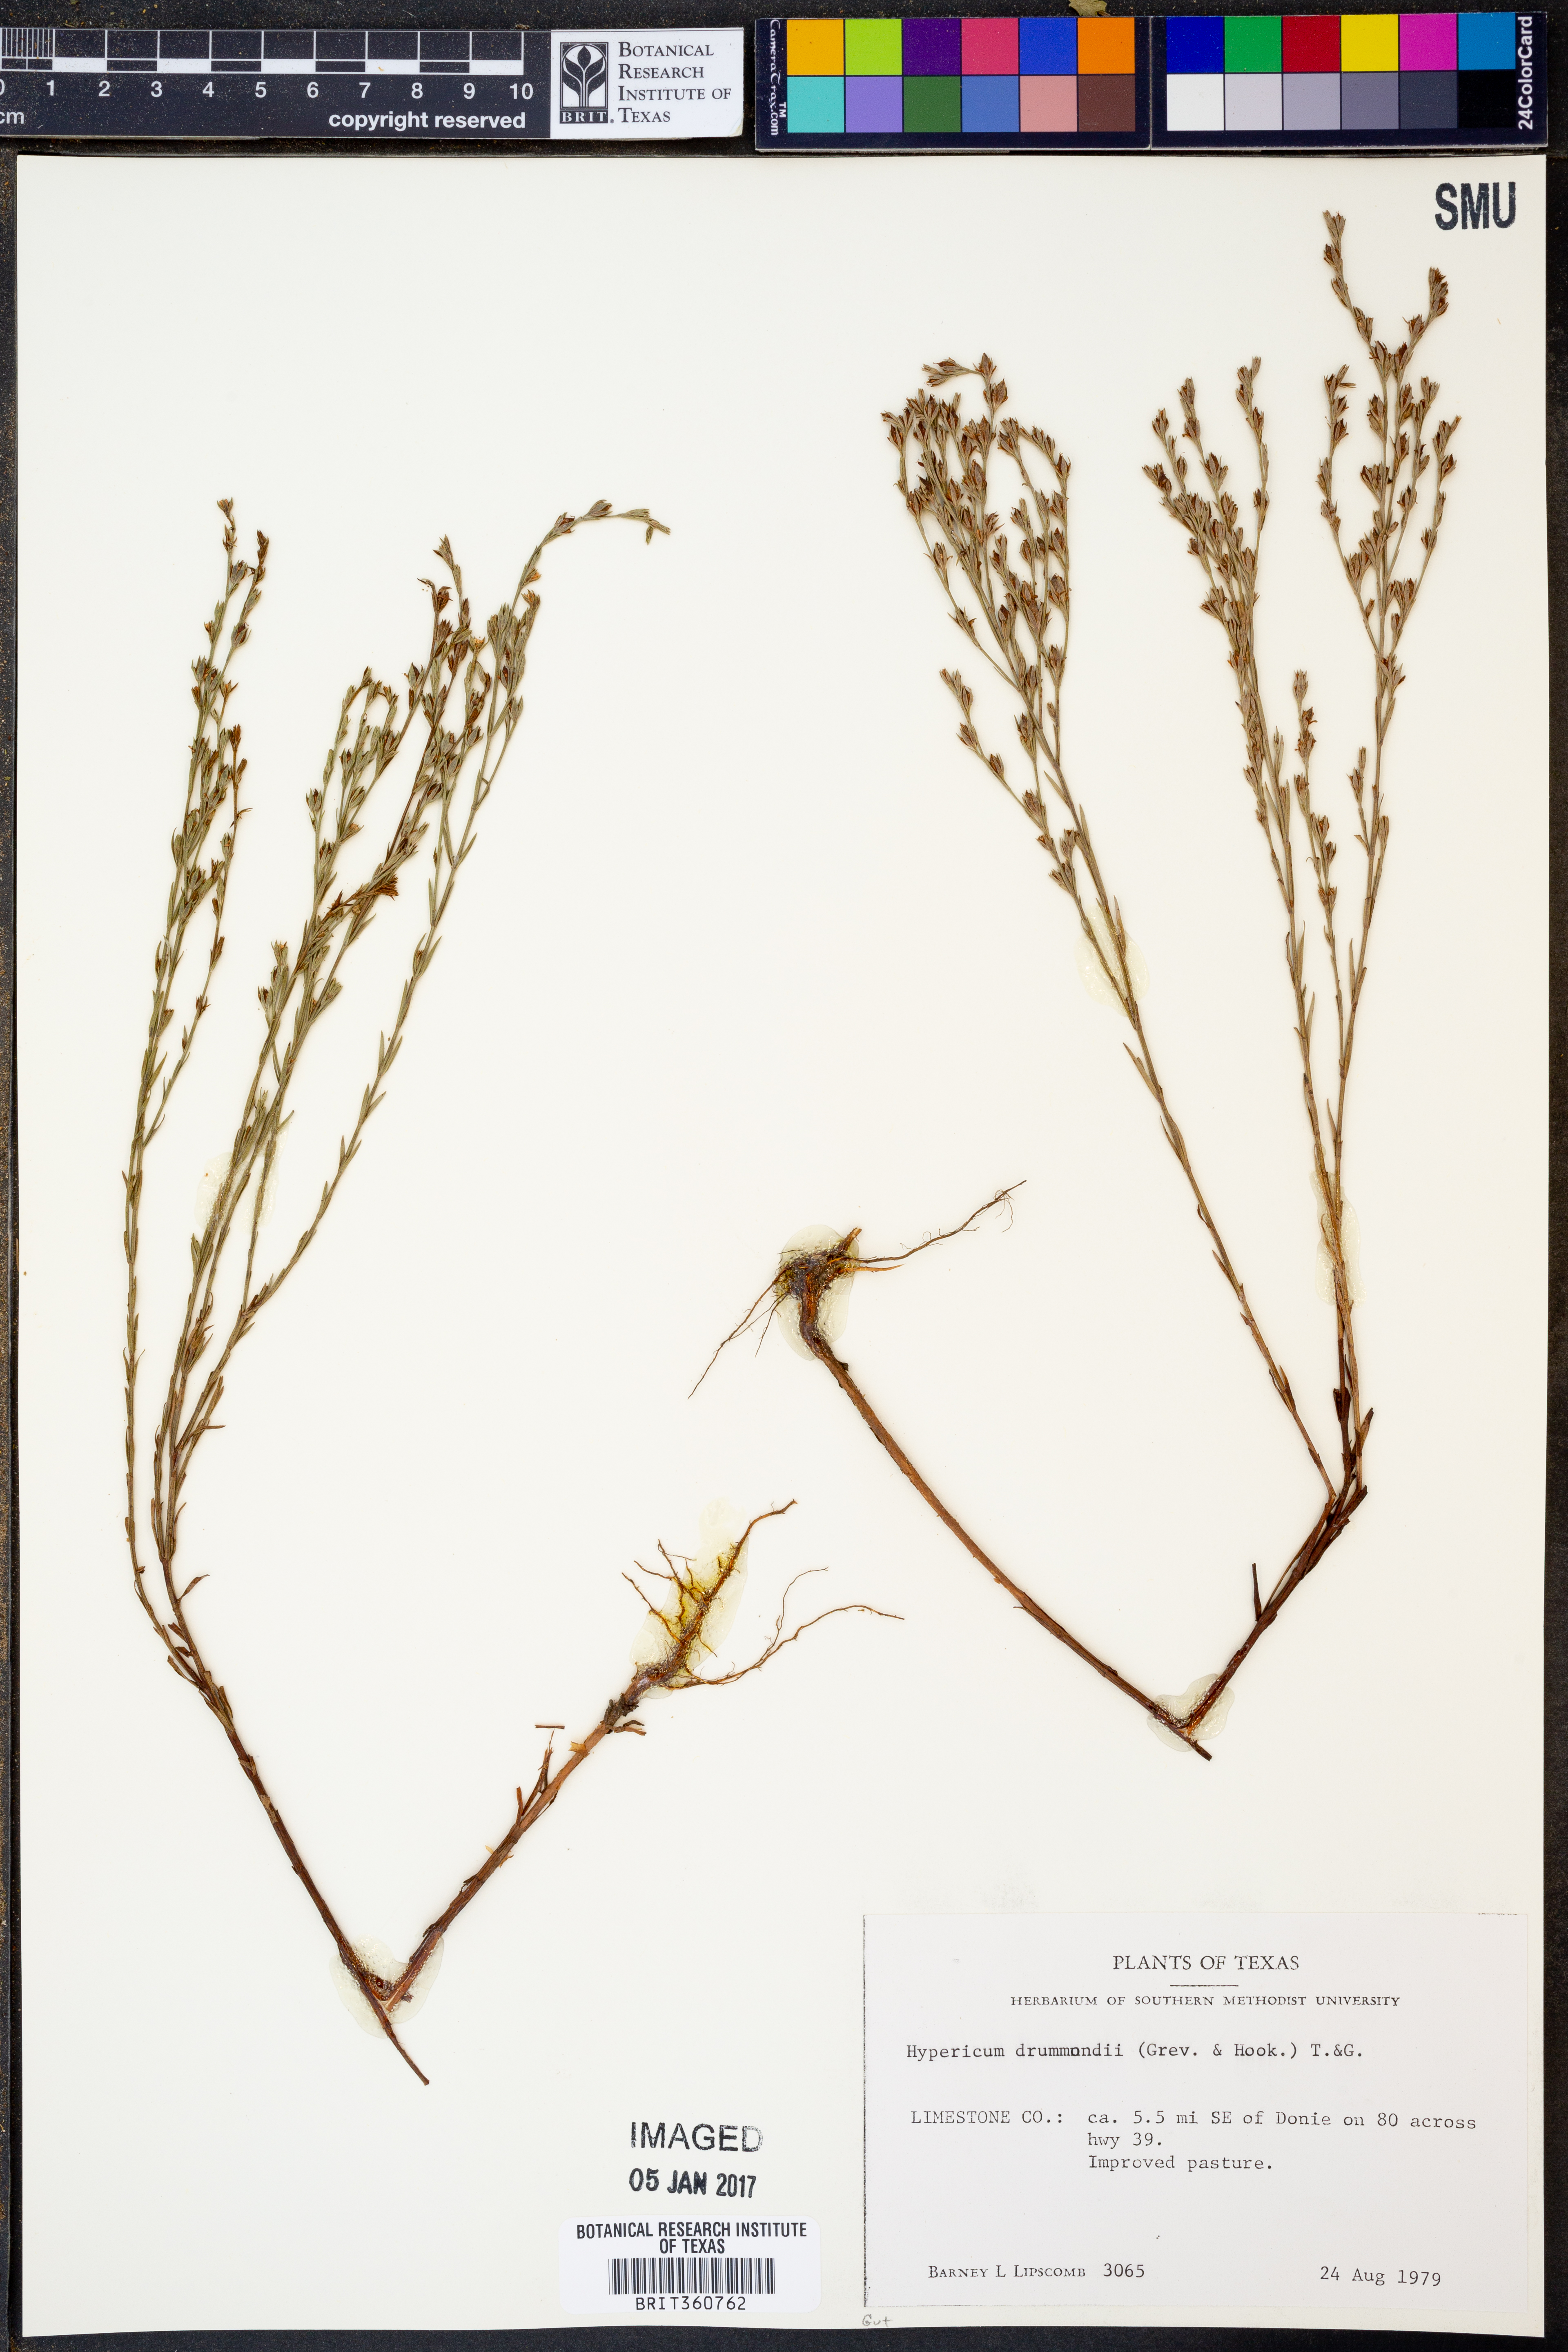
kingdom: Plantae
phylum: Tracheophyta
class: Magnoliopsida
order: Malpighiales
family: Hypericaceae
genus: Hypericum
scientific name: Hypericum drummondii
